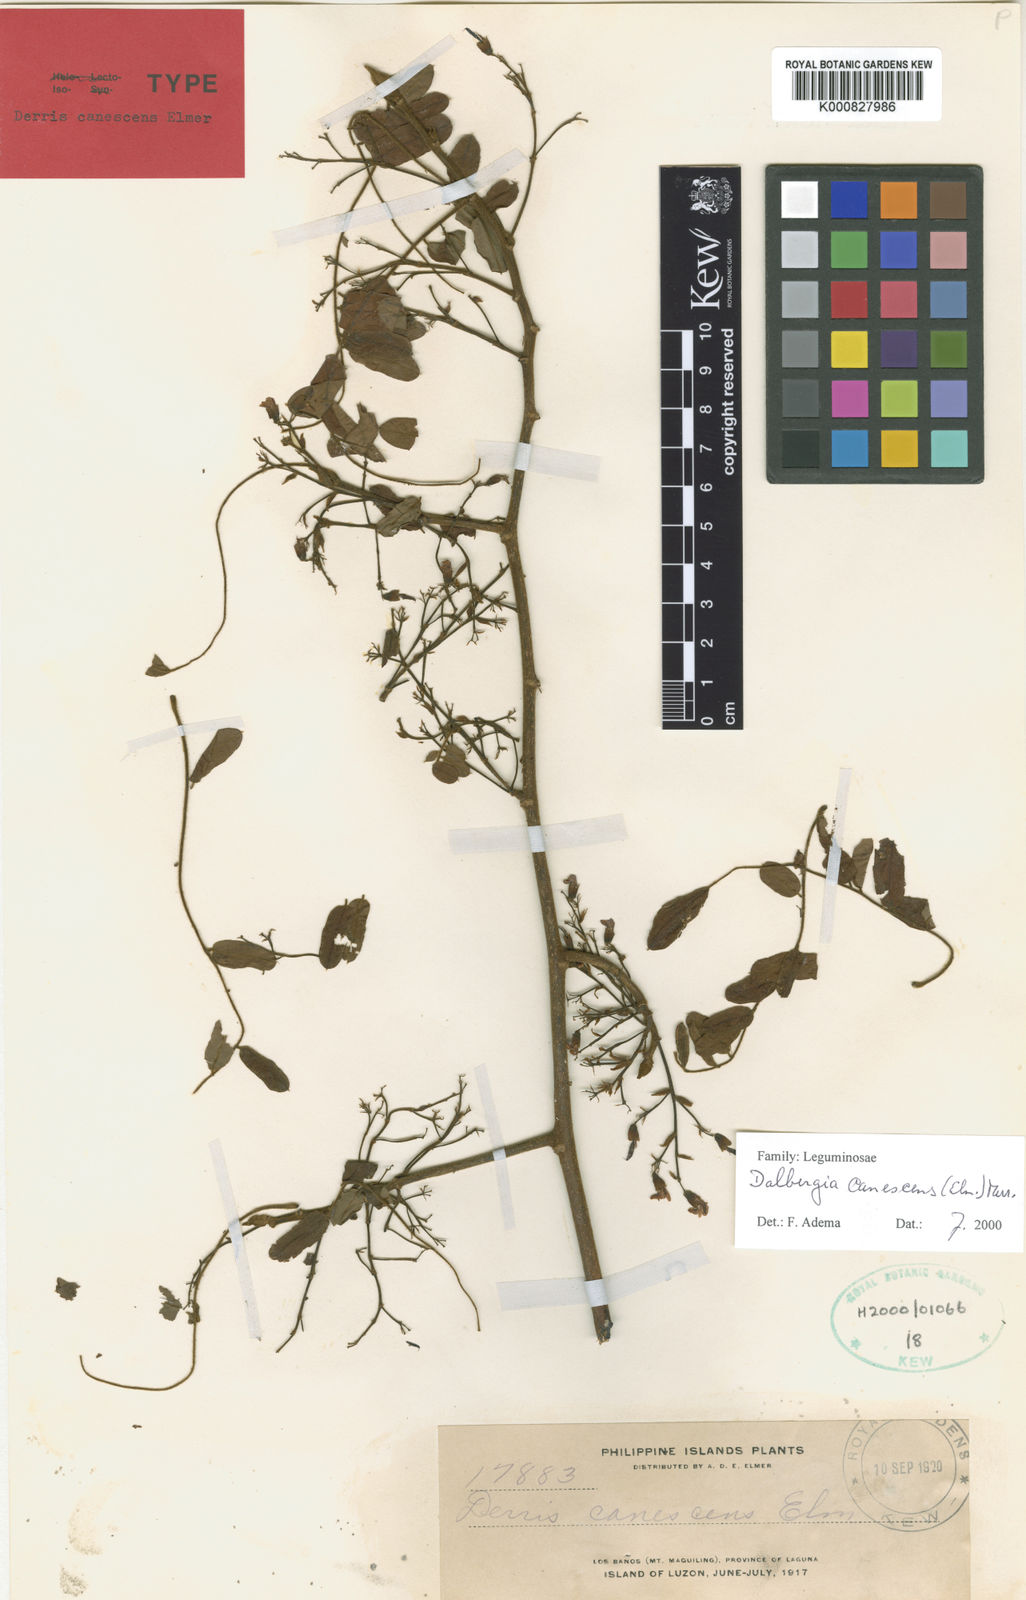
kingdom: Plantae
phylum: Tracheophyta
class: Magnoliopsida
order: Fabales
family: Fabaceae
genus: Dalbergia
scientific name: Dalbergia canescens
